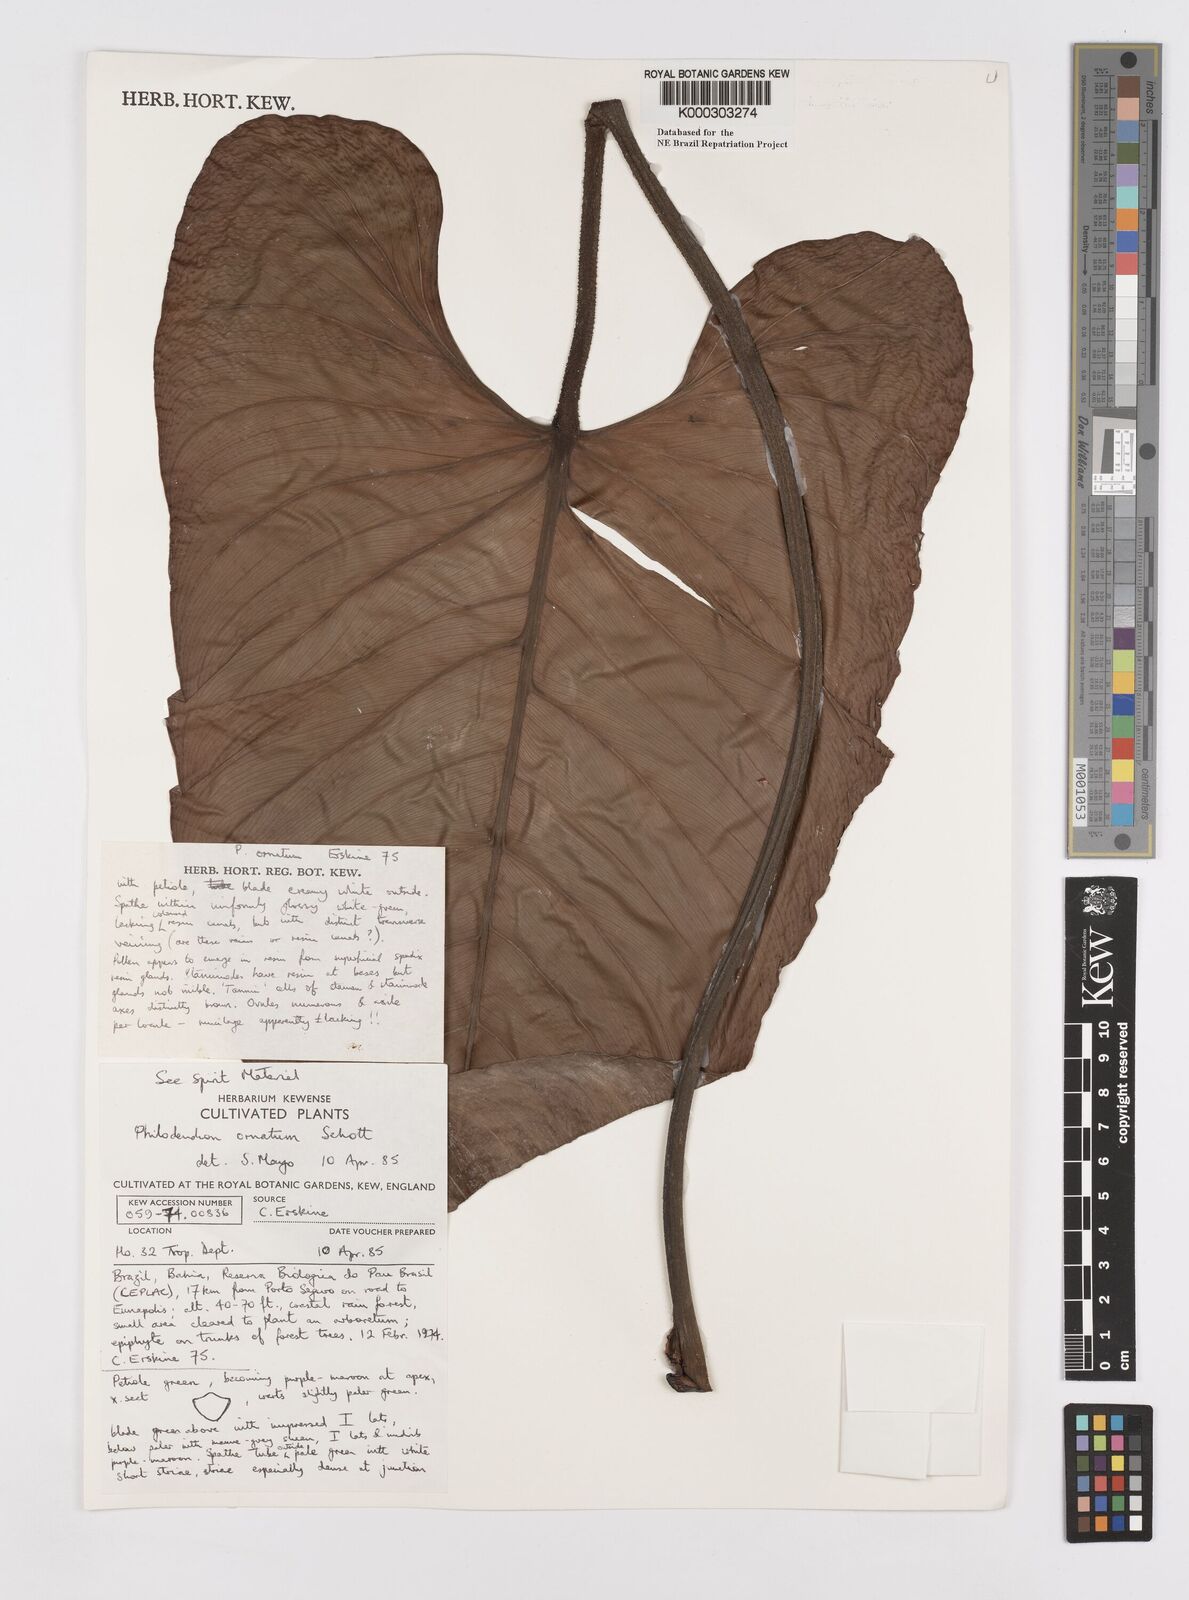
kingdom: Plantae
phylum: Tracheophyta
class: Liliopsida
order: Alismatales
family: Araceae
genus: Philodendron
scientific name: Philodendron ornatum
